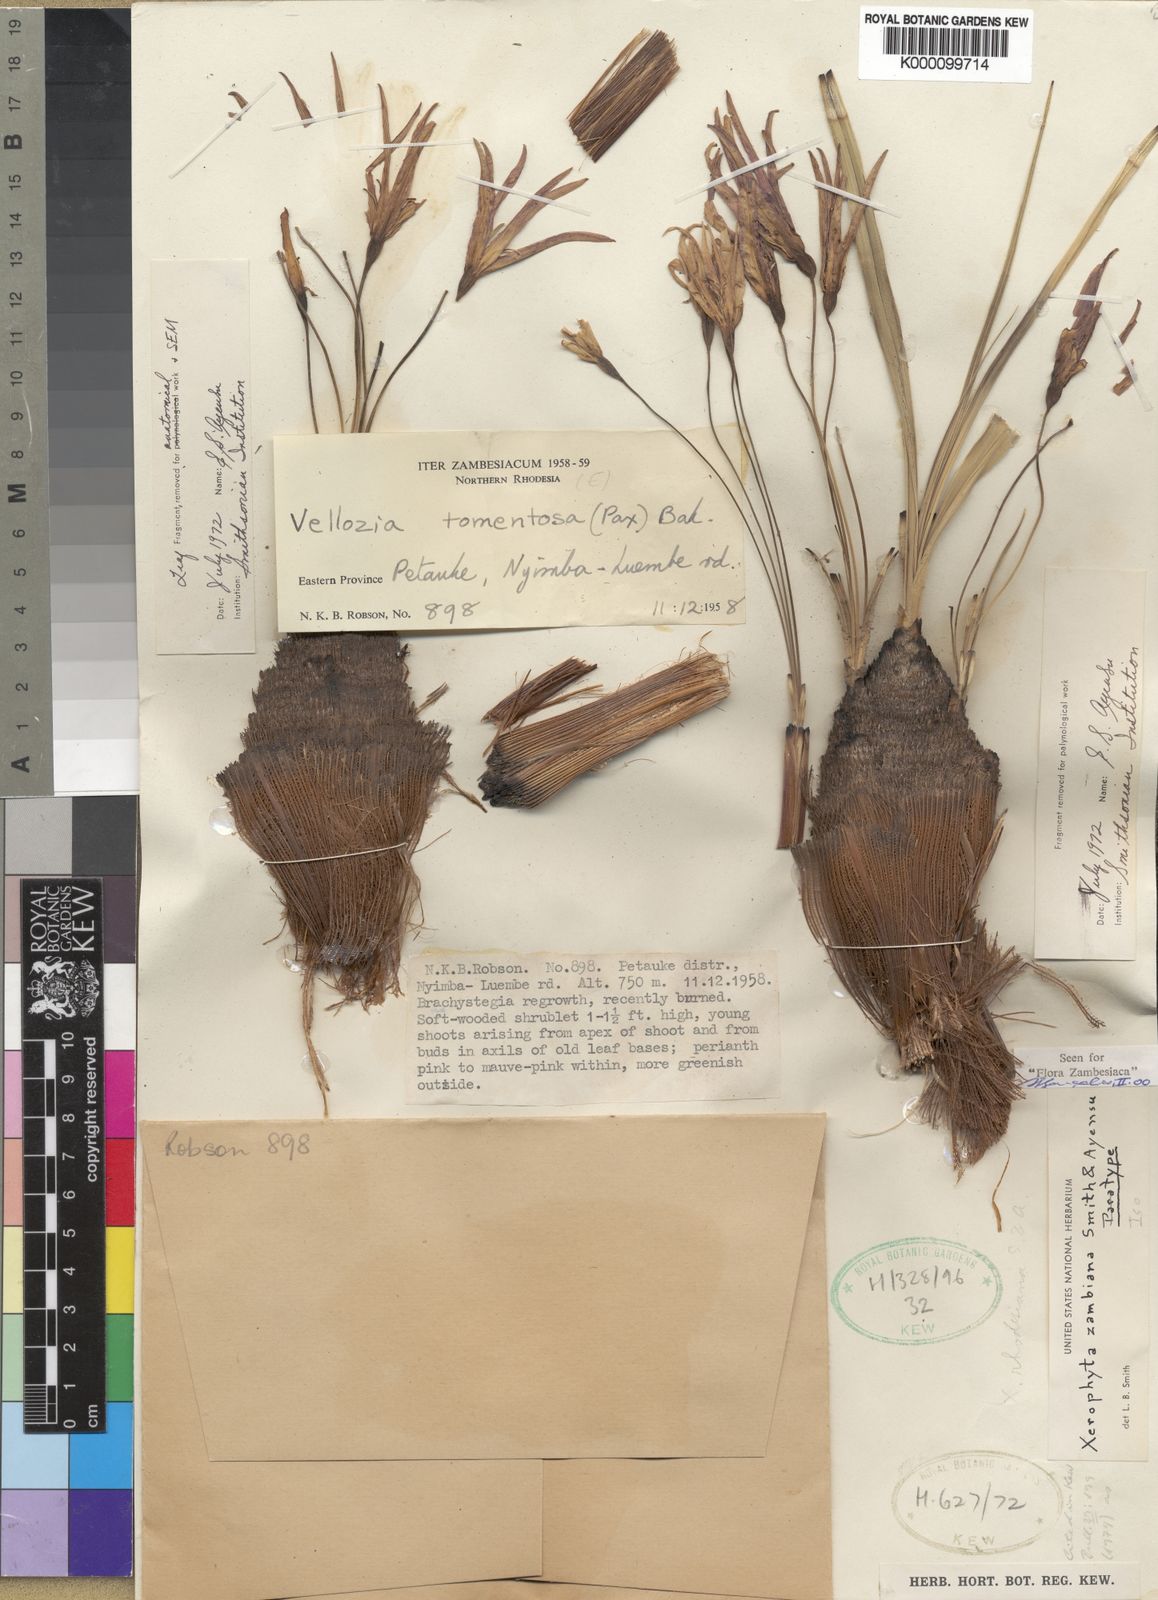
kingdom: Plantae
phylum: Tracheophyta
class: Liliopsida
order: Pandanales
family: Velloziaceae
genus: Xerophyta
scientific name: Xerophyta demeesmaekeriana
